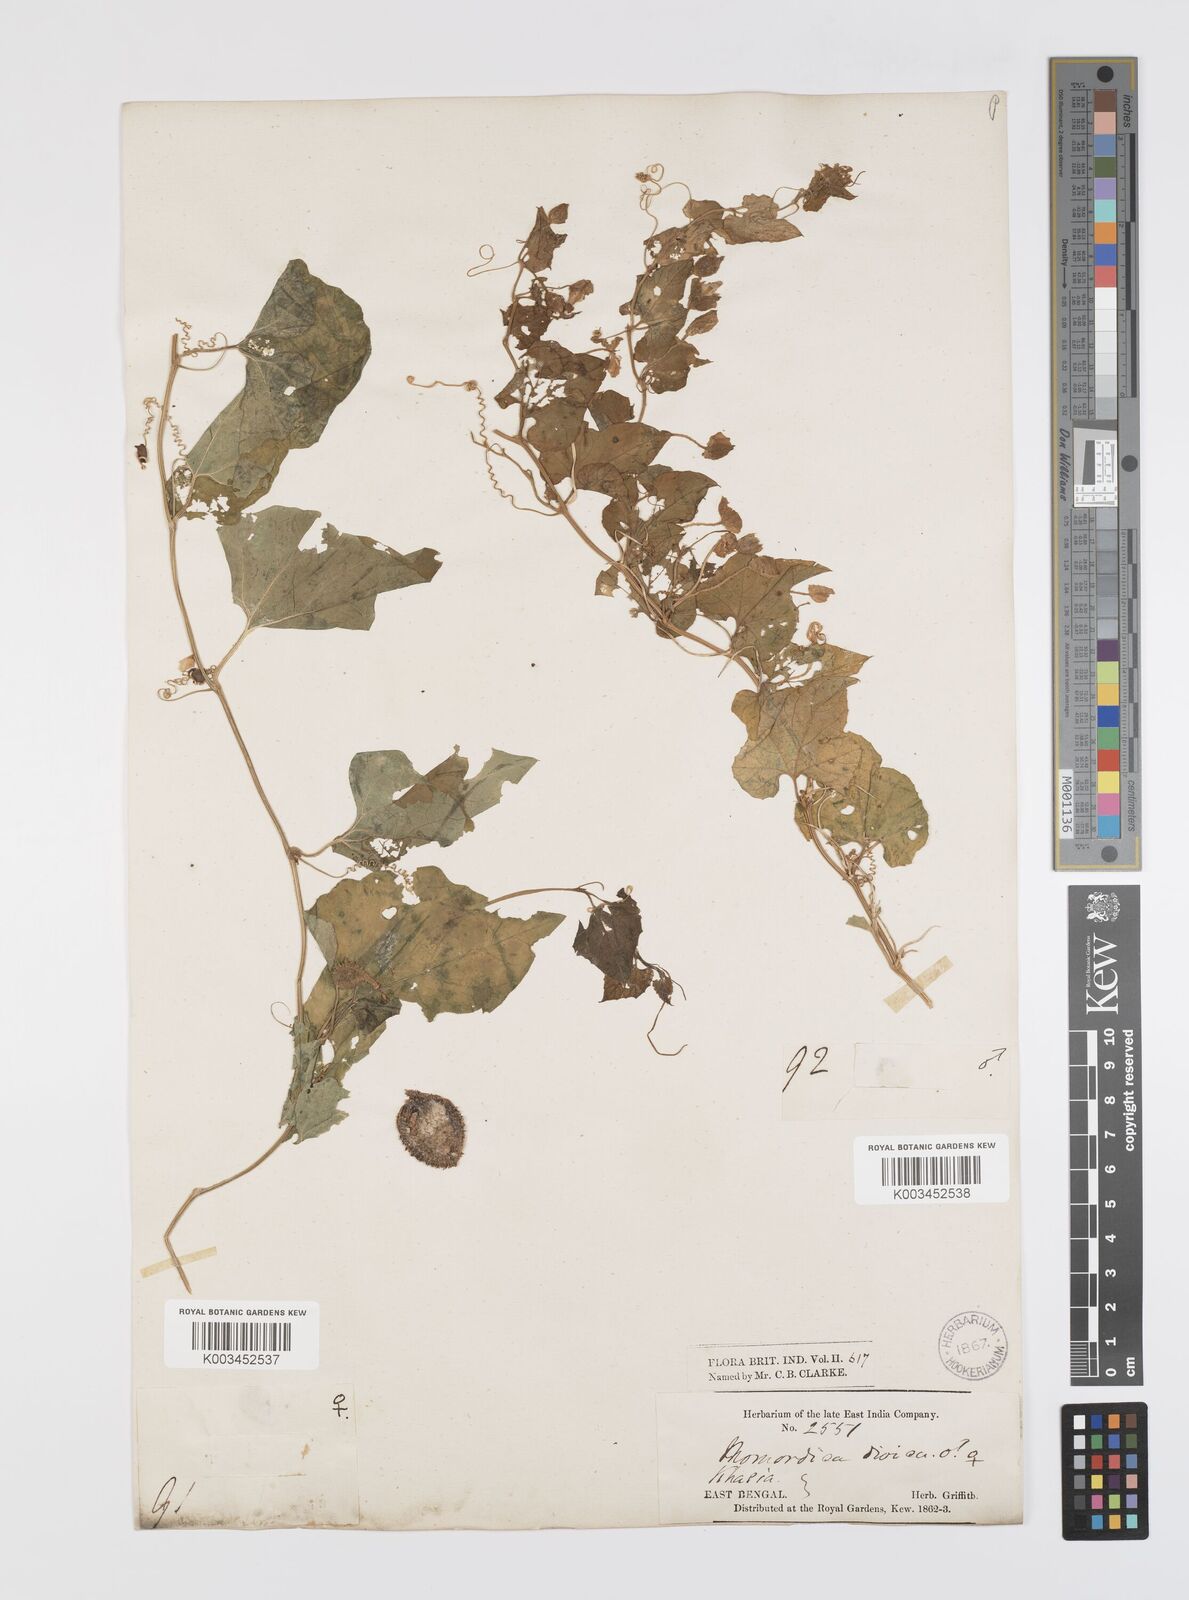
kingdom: Plantae
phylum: Tracheophyta
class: Magnoliopsida
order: Cucurbitales
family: Cucurbitaceae
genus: Momordica
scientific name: Momordica dioica
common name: Spine gourd
